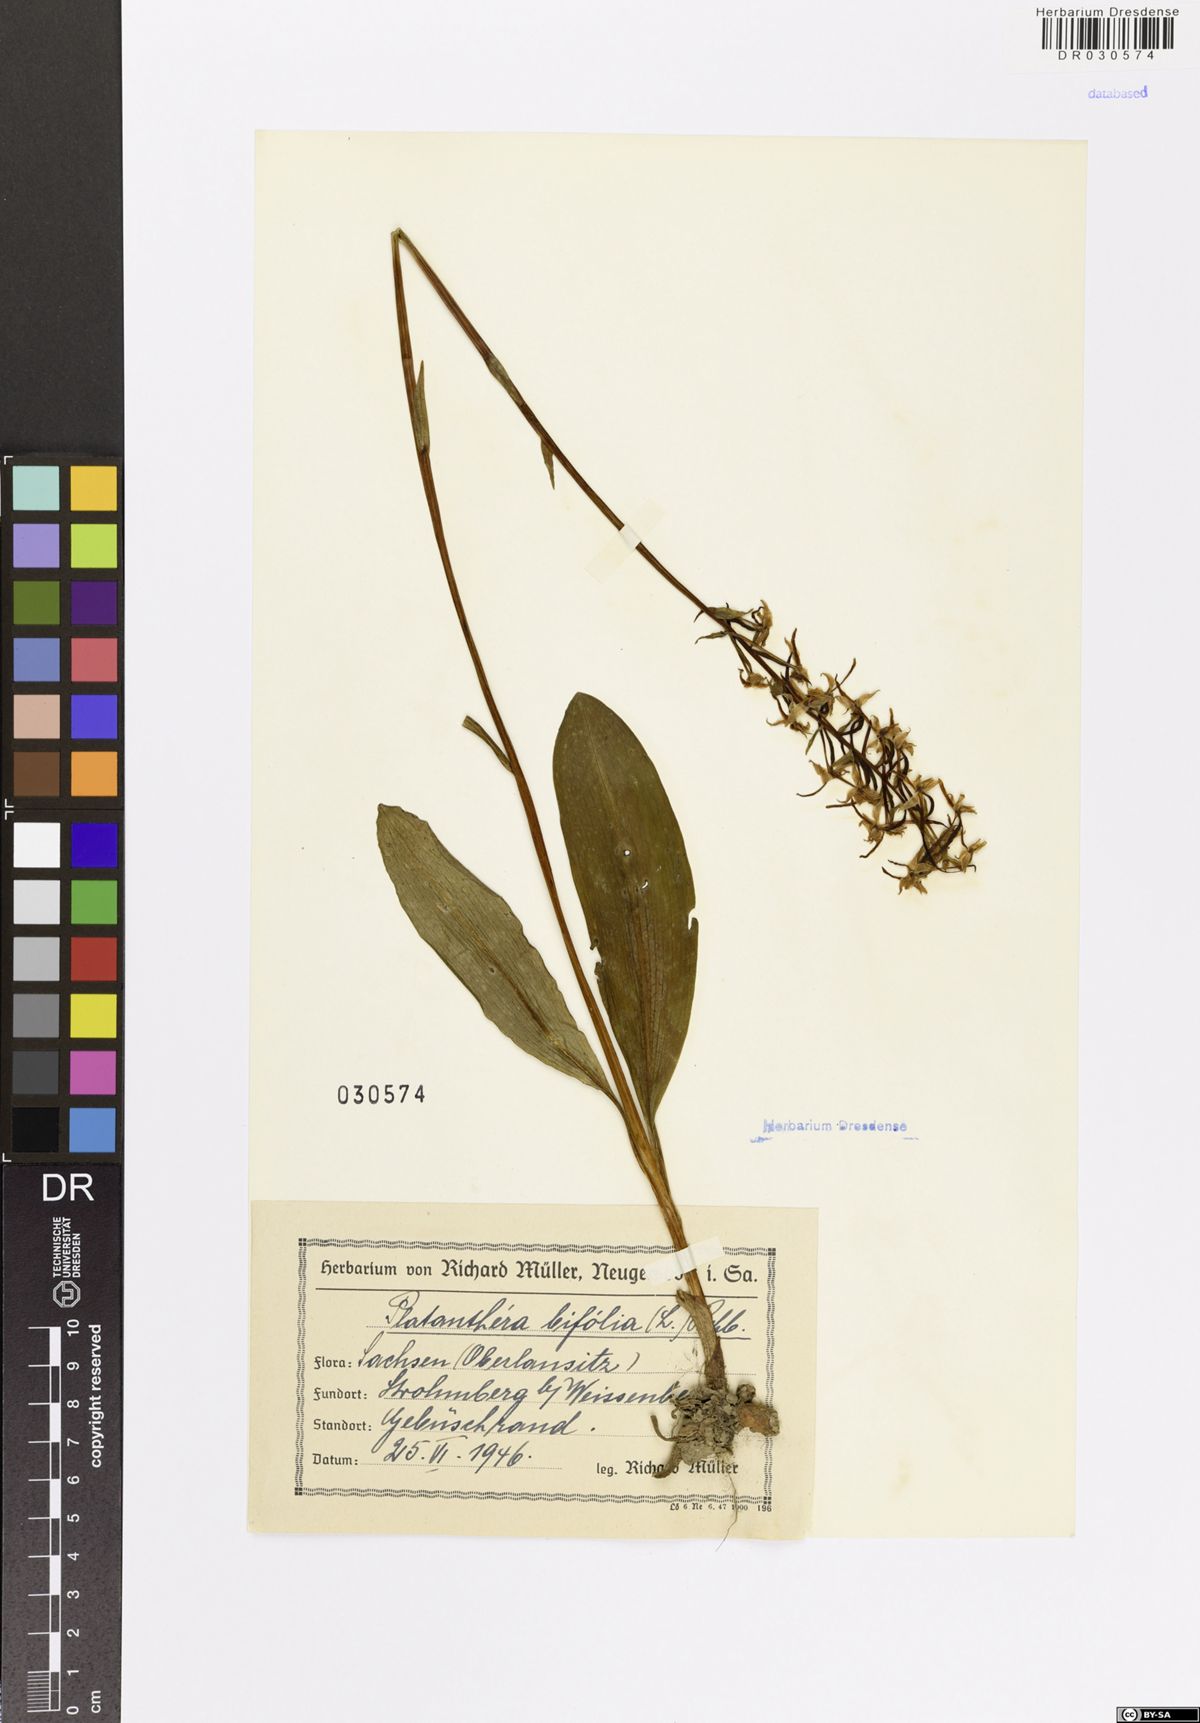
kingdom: Plantae
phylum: Tracheophyta
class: Liliopsida
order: Asparagales
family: Orchidaceae
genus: Platanthera
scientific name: Platanthera bifolia
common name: Lesser butterfly-orchid
